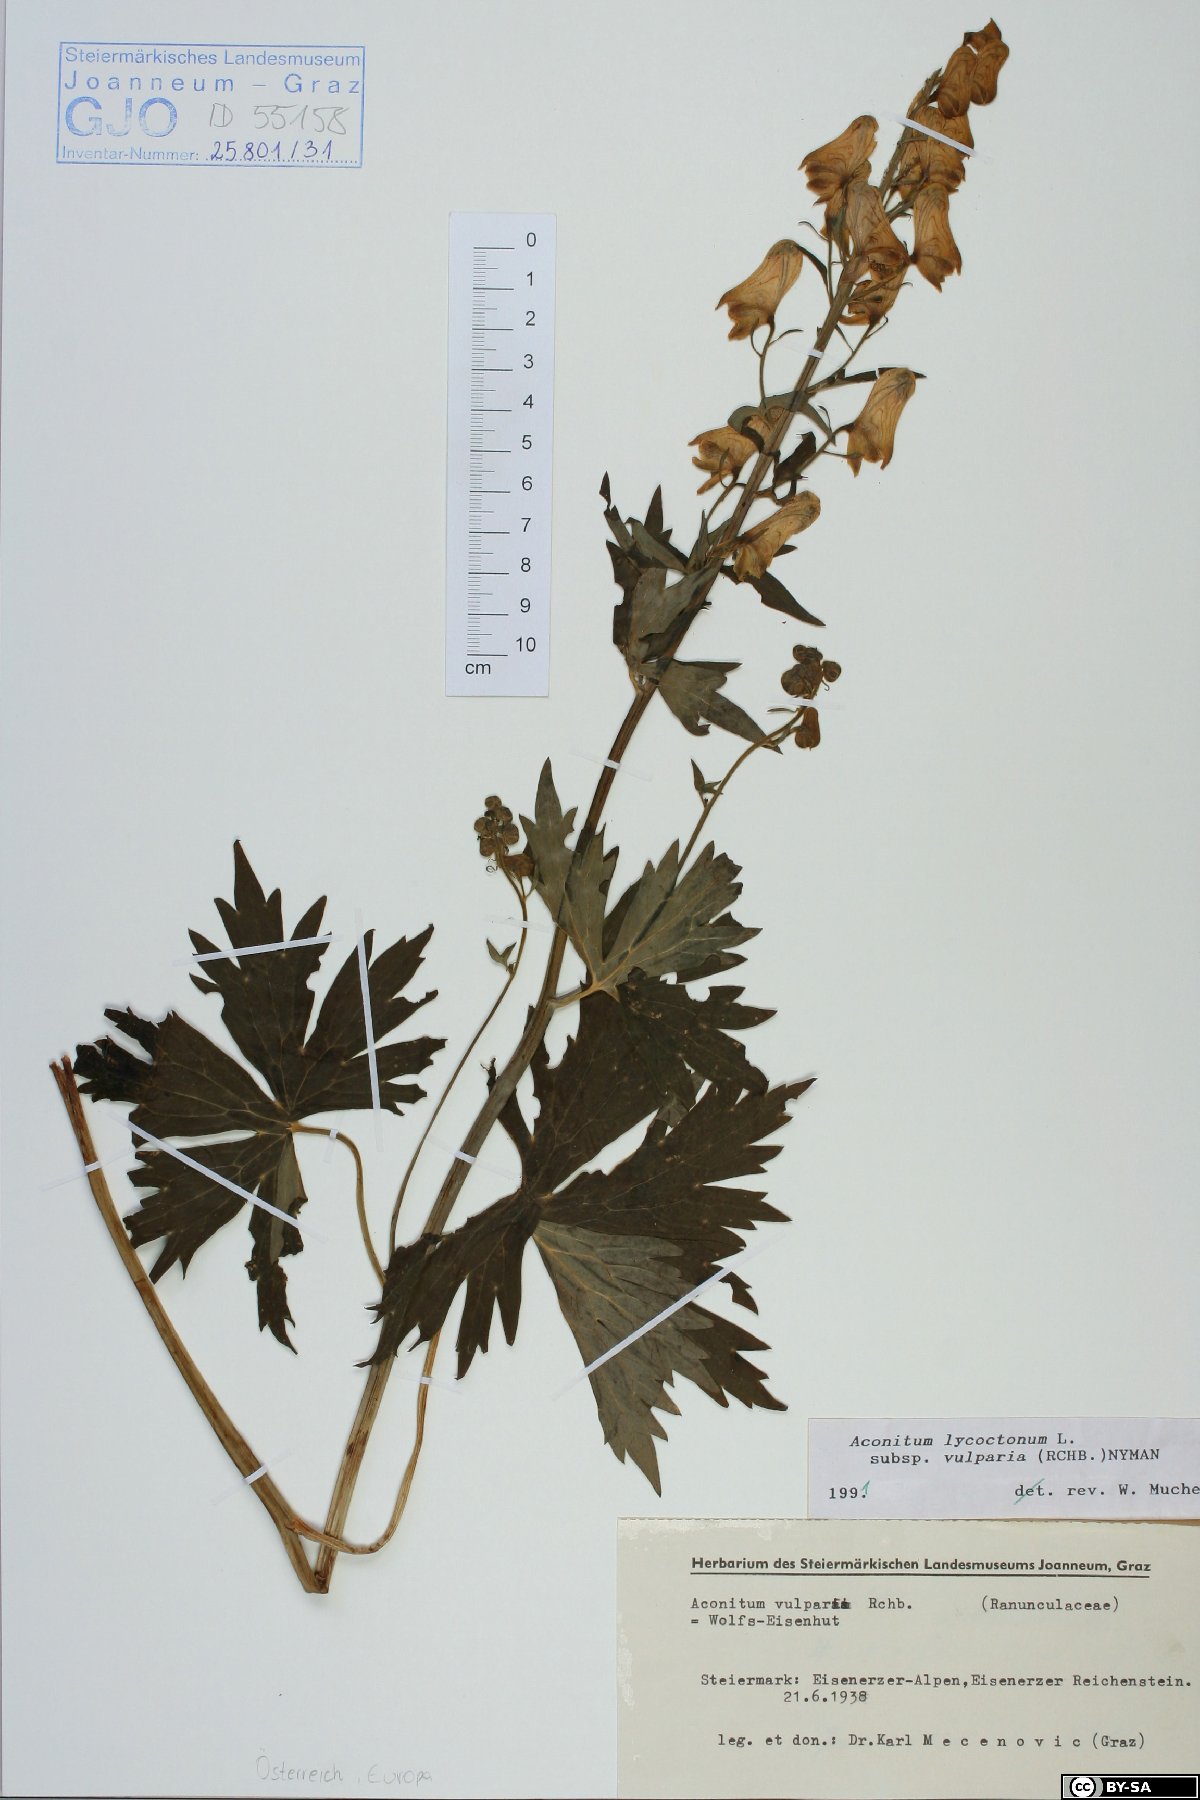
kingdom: Plantae
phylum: Tracheophyta
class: Magnoliopsida
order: Ranunculales
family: Ranunculaceae
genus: Aconitum
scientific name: Aconitum lycoctonum
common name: Wolf's-bane
